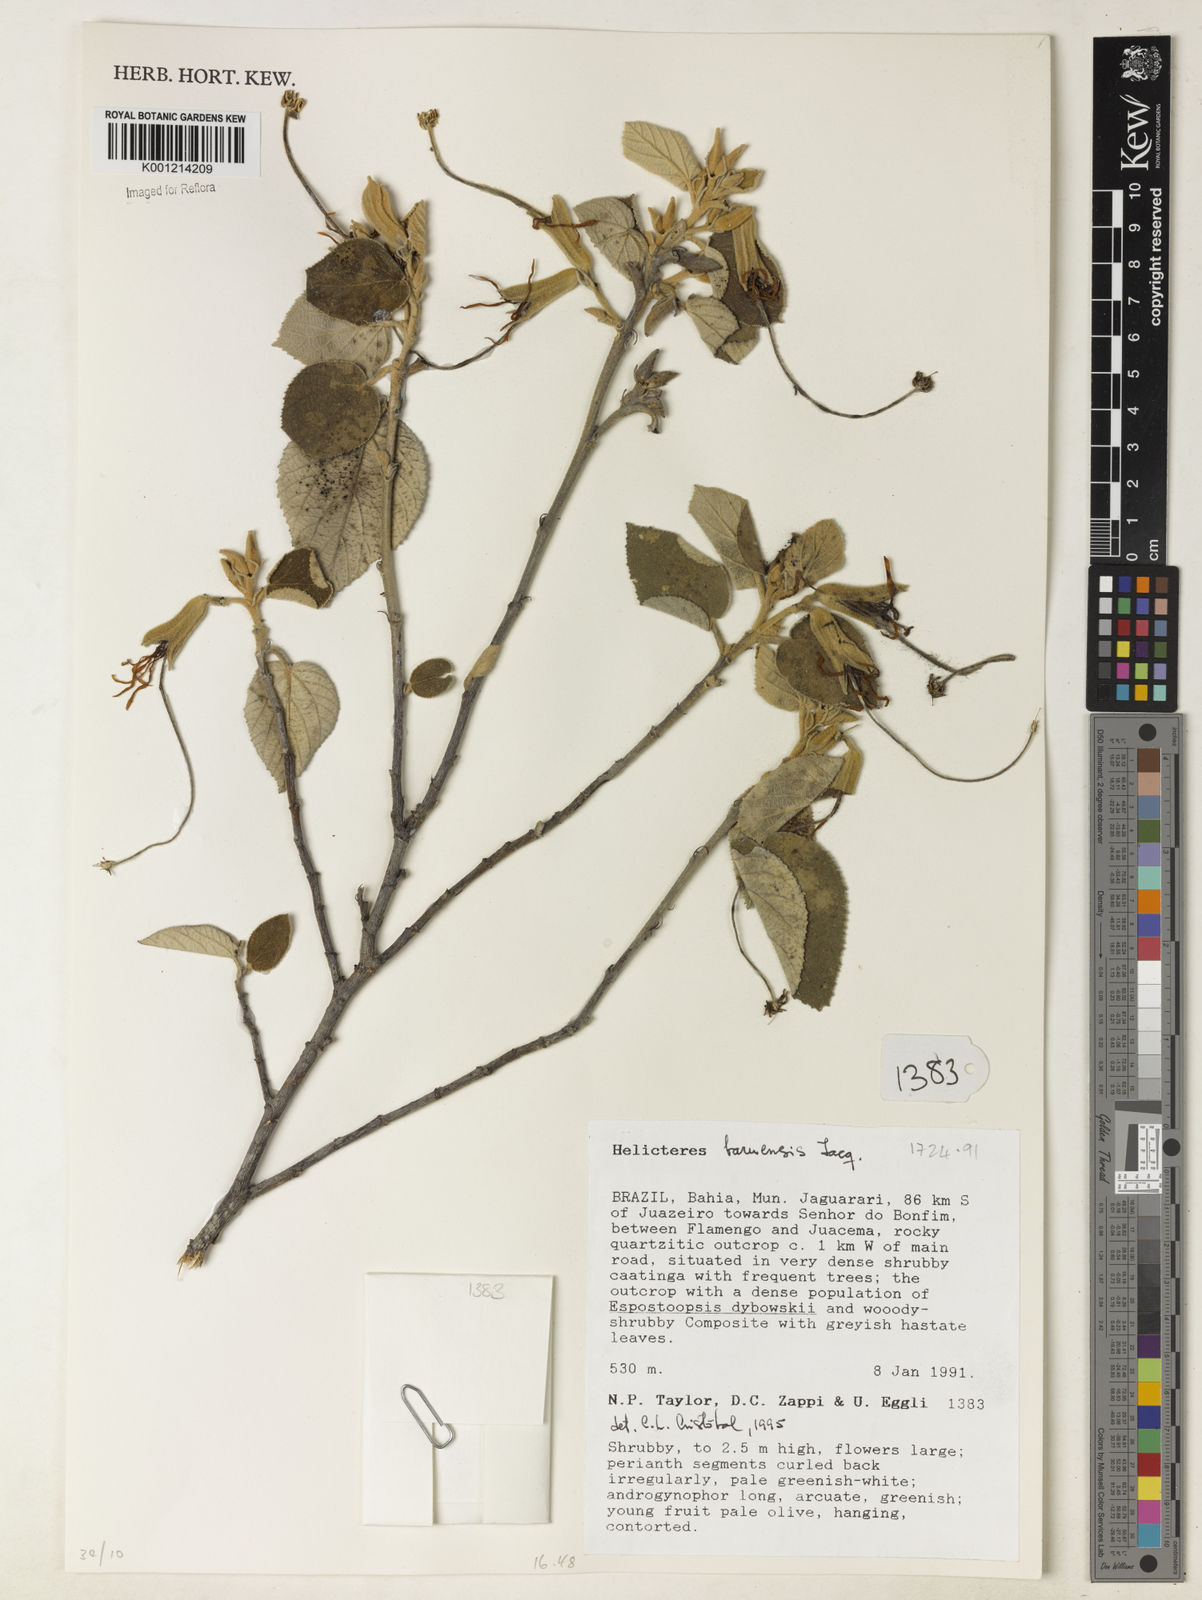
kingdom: Plantae
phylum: Tracheophyta
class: Magnoliopsida
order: Malvales
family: Malvaceae
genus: Helicteres
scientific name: Helicteres baruensis
